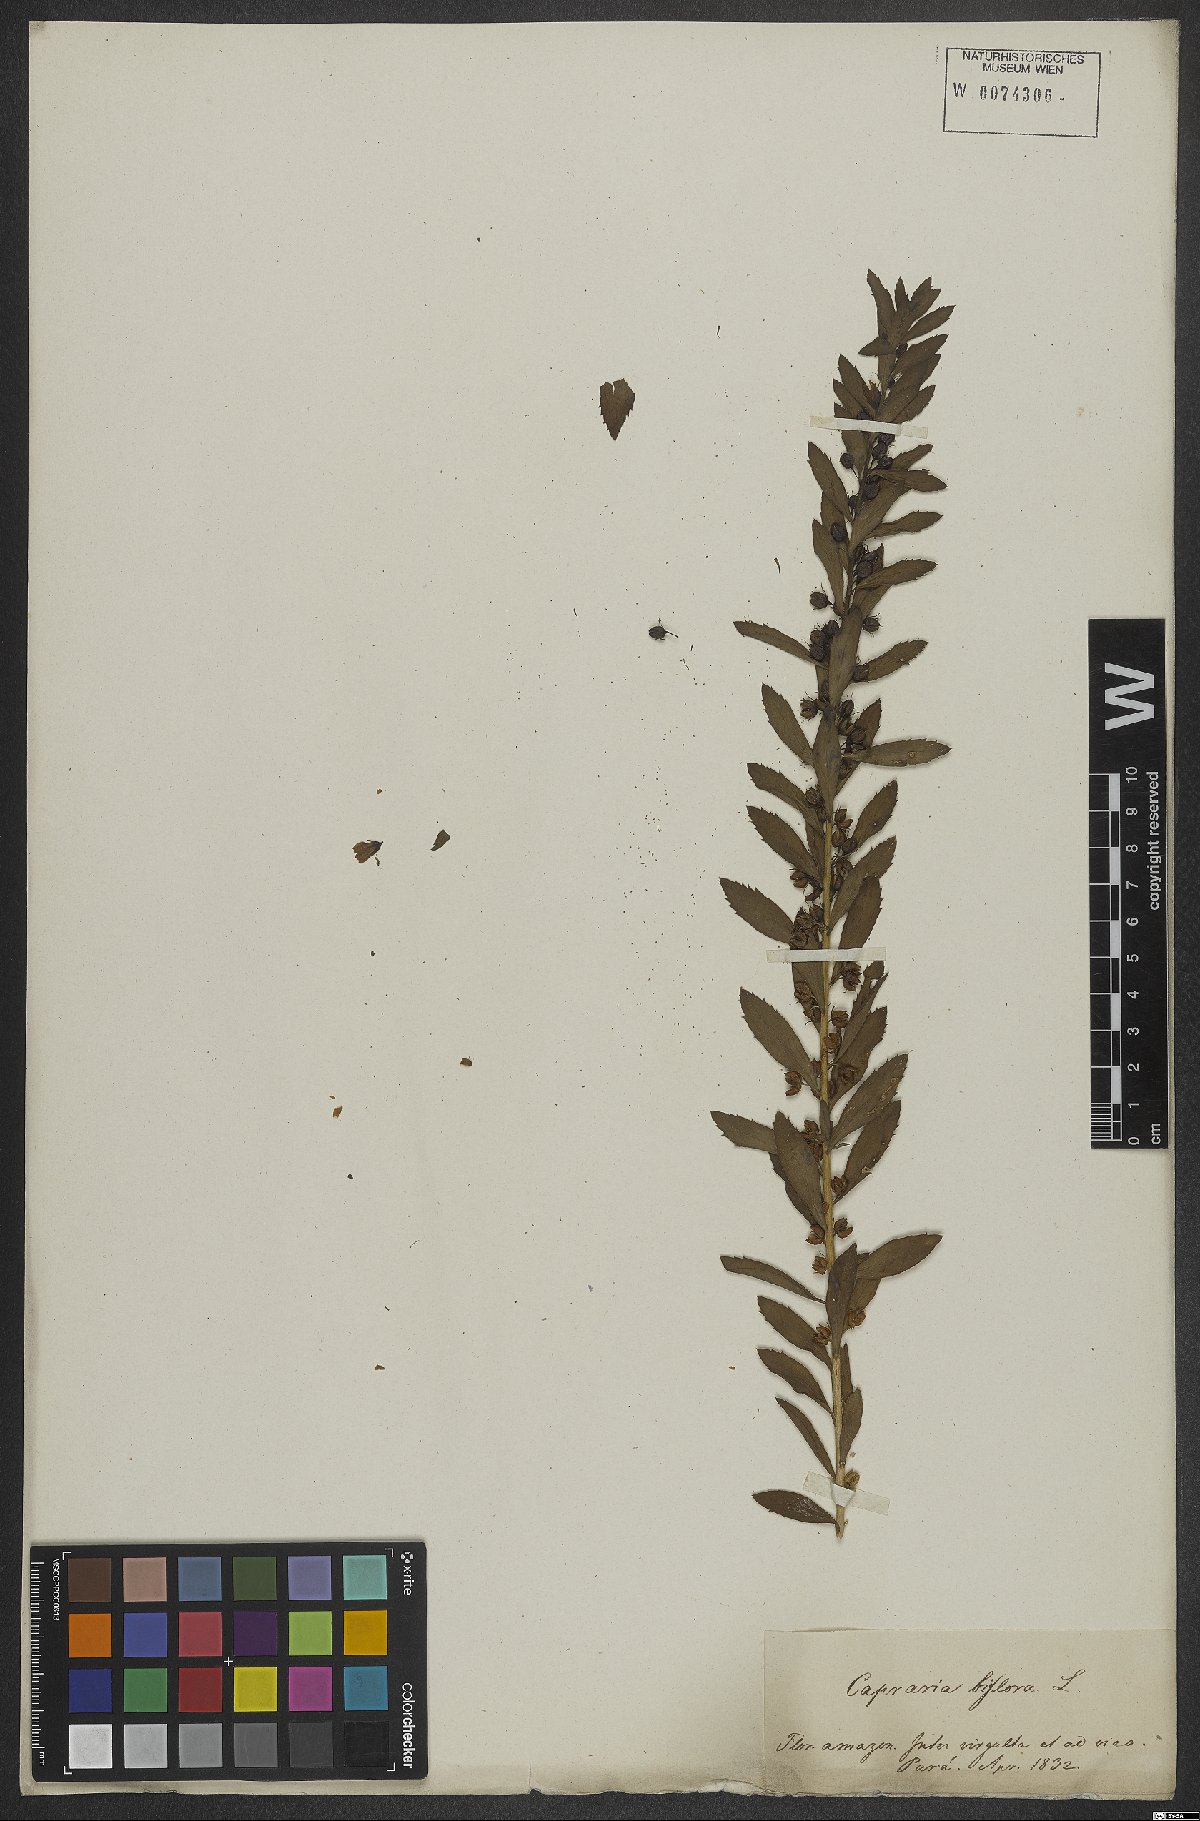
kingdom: Plantae
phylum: Tracheophyta
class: Magnoliopsida
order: Lamiales
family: Scrophulariaceae
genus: Capraria
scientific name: Capraria biflora
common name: Goatweed
